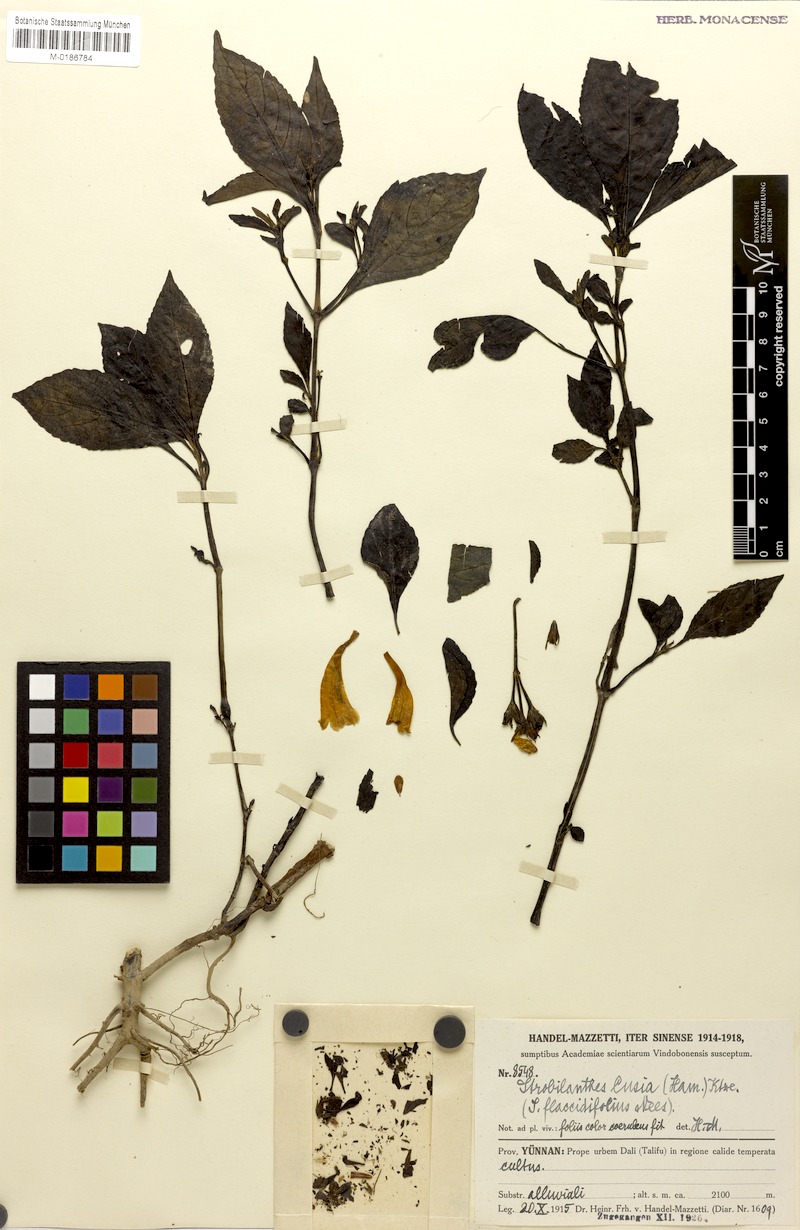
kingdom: Plantae
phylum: Tracheophyta
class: Magnoliopsida
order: Lamiales
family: Acanthaceae
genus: Strobilanthes
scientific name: Strobilanthes
